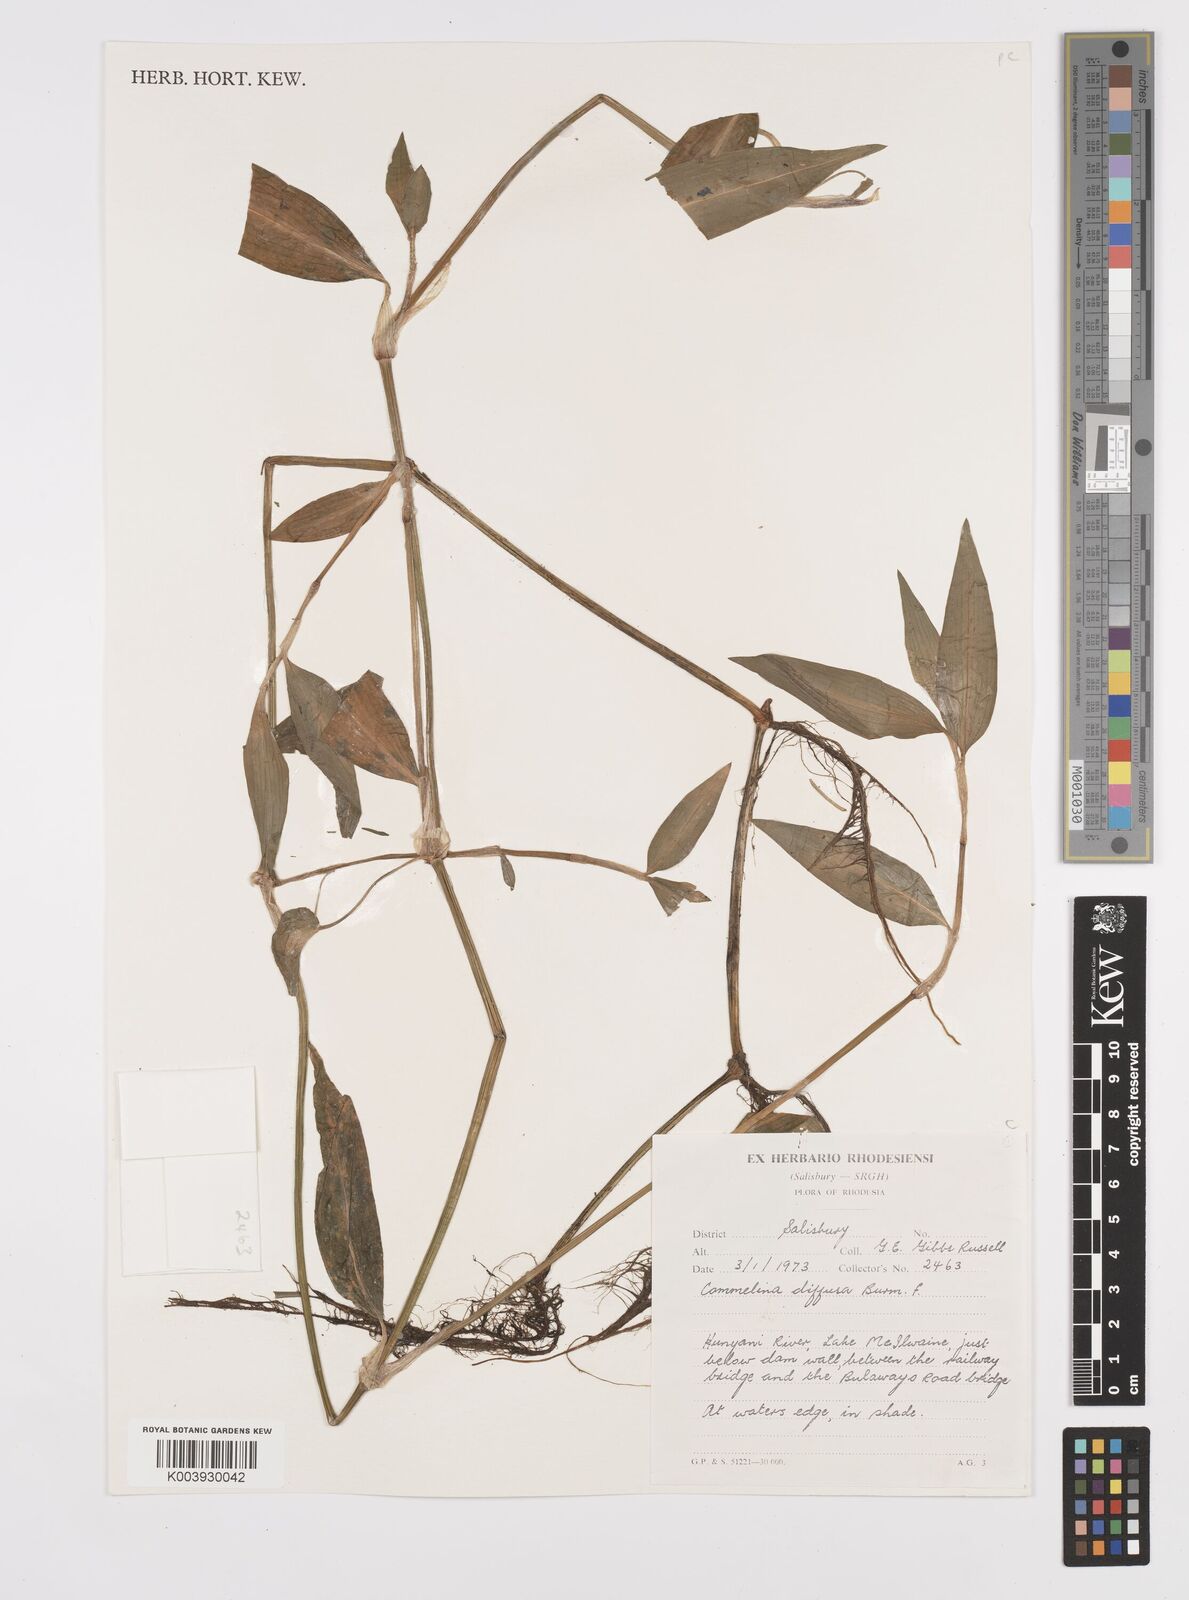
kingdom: Plantae
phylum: Tracheophyta
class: Liliopsida
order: Commelinales
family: Commelinaceae
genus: Commelina
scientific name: Commelina diffusa
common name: Climbing dayflower
